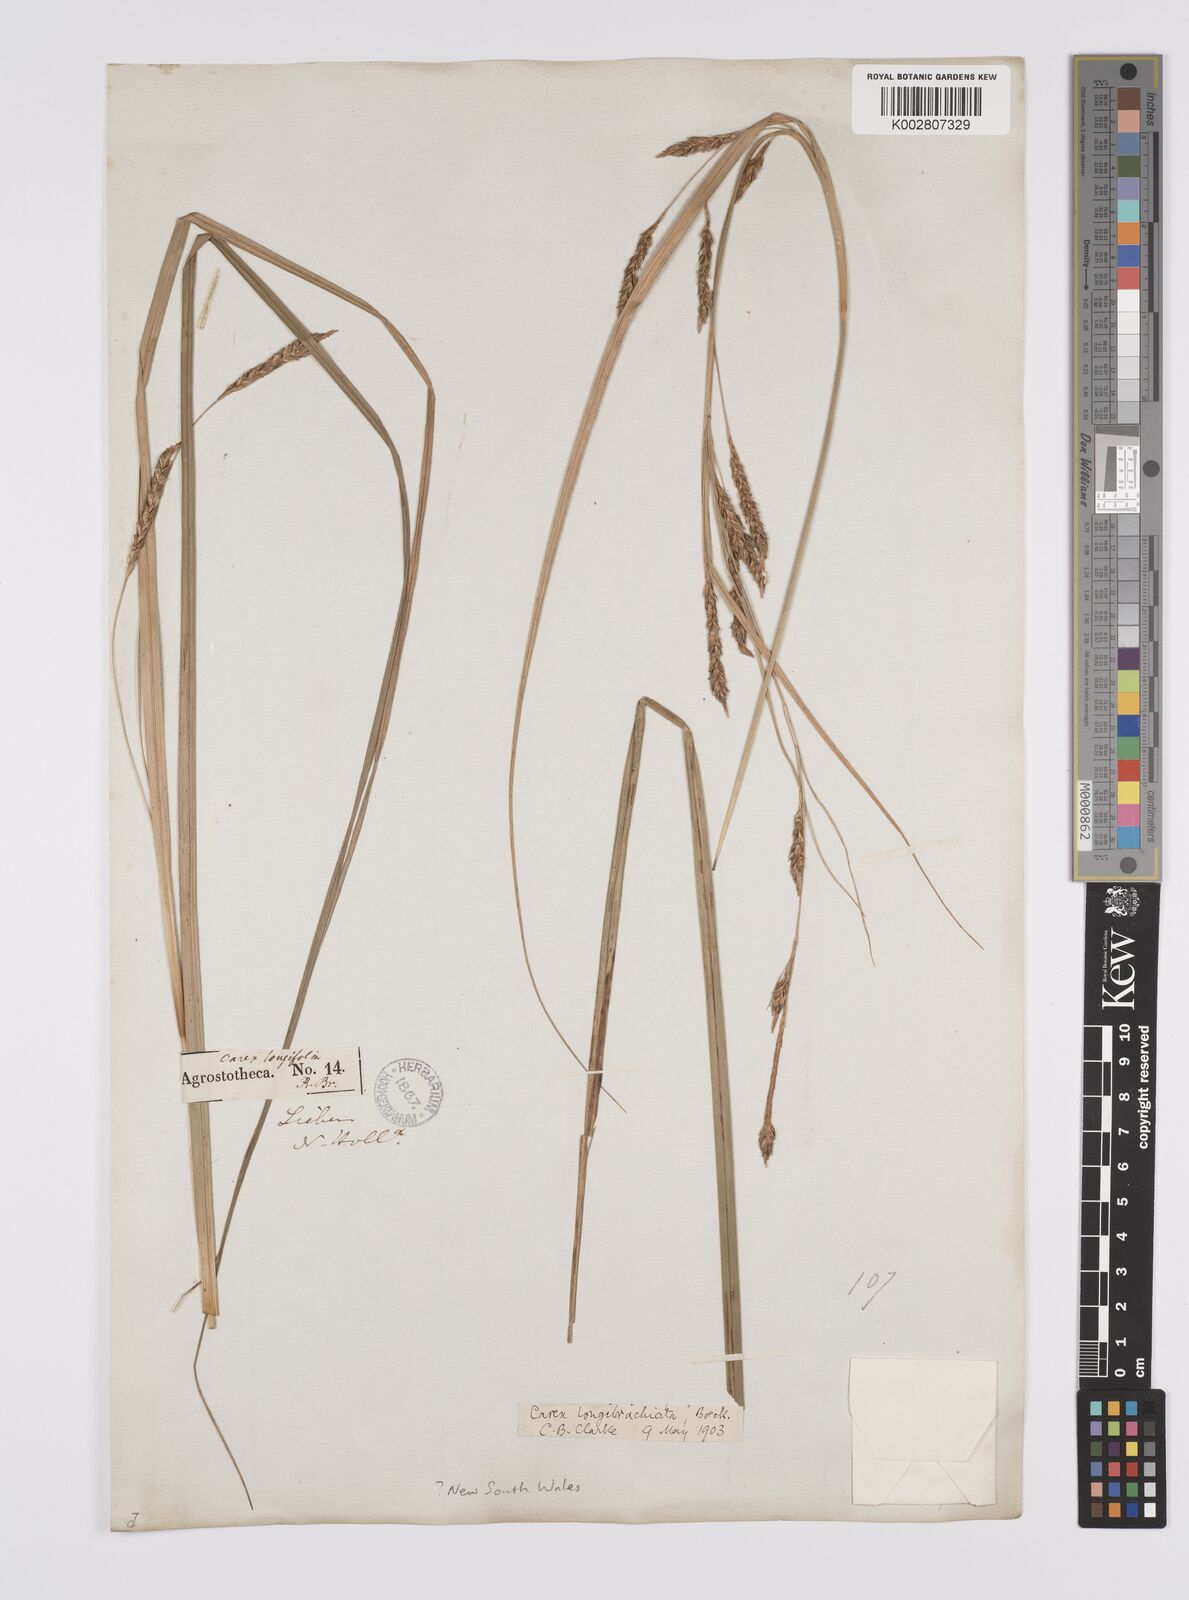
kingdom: Plantae
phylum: Tracheophyta
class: Liliopsida
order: Poales
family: Cyperaceae
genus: Carex
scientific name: Carex pseudocyperus
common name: Cyperus sedge
